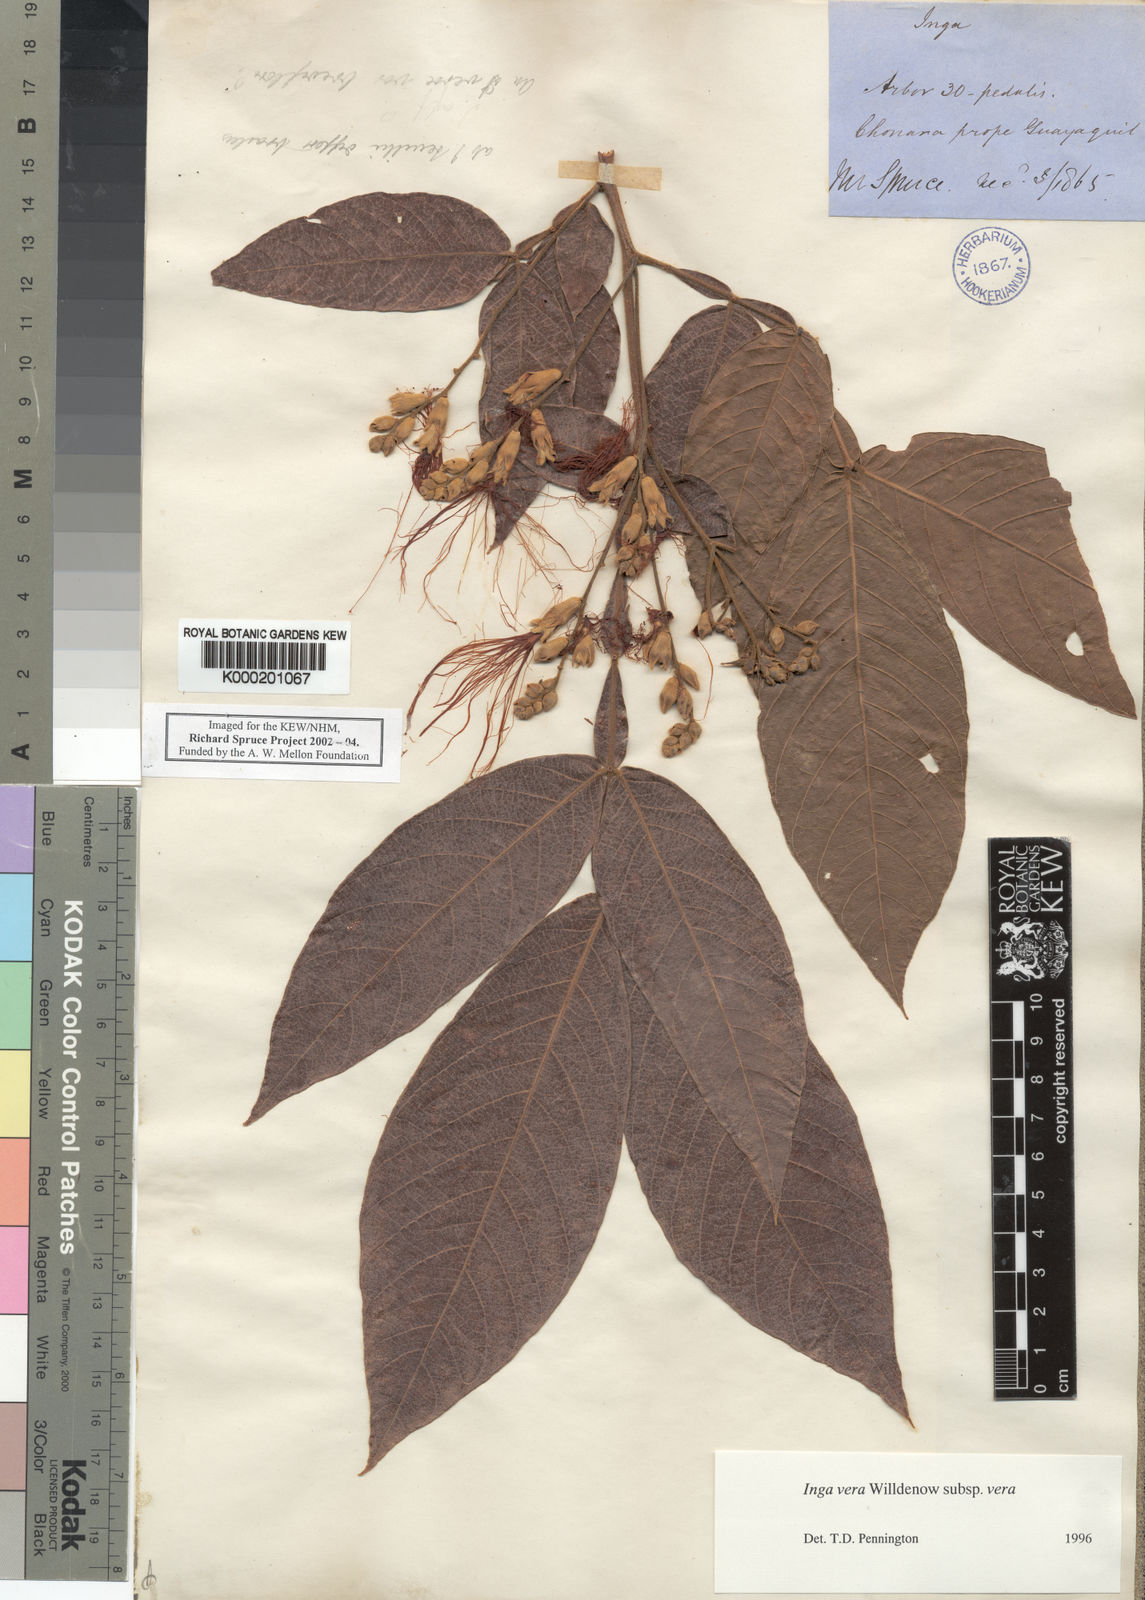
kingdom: Plantae
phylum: Tracheophyta
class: Magnoliopsida
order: Fabales
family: Fabaceae
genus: Inga
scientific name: Inga vera
